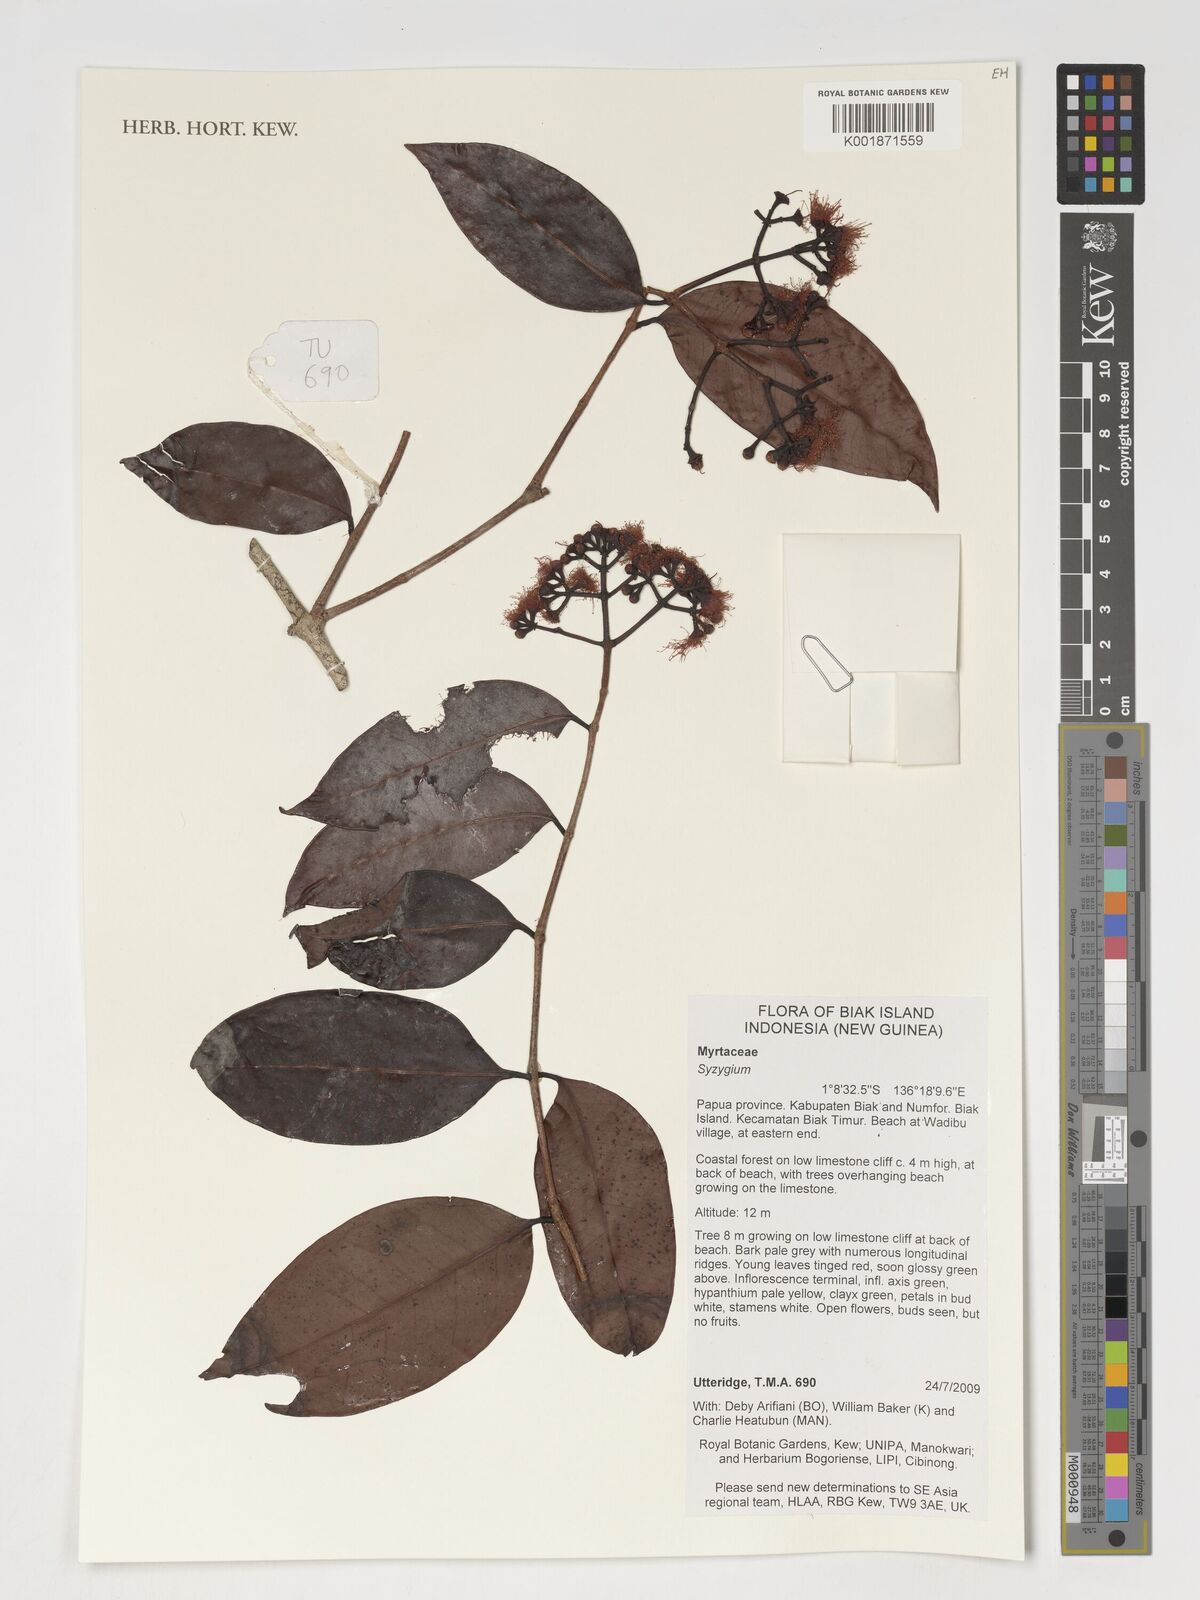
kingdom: Plantae
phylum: Tracheophyta
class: Magnoliopsida
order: Myrtales
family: Myrtaceae
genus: Syzygium
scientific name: Syzygium
